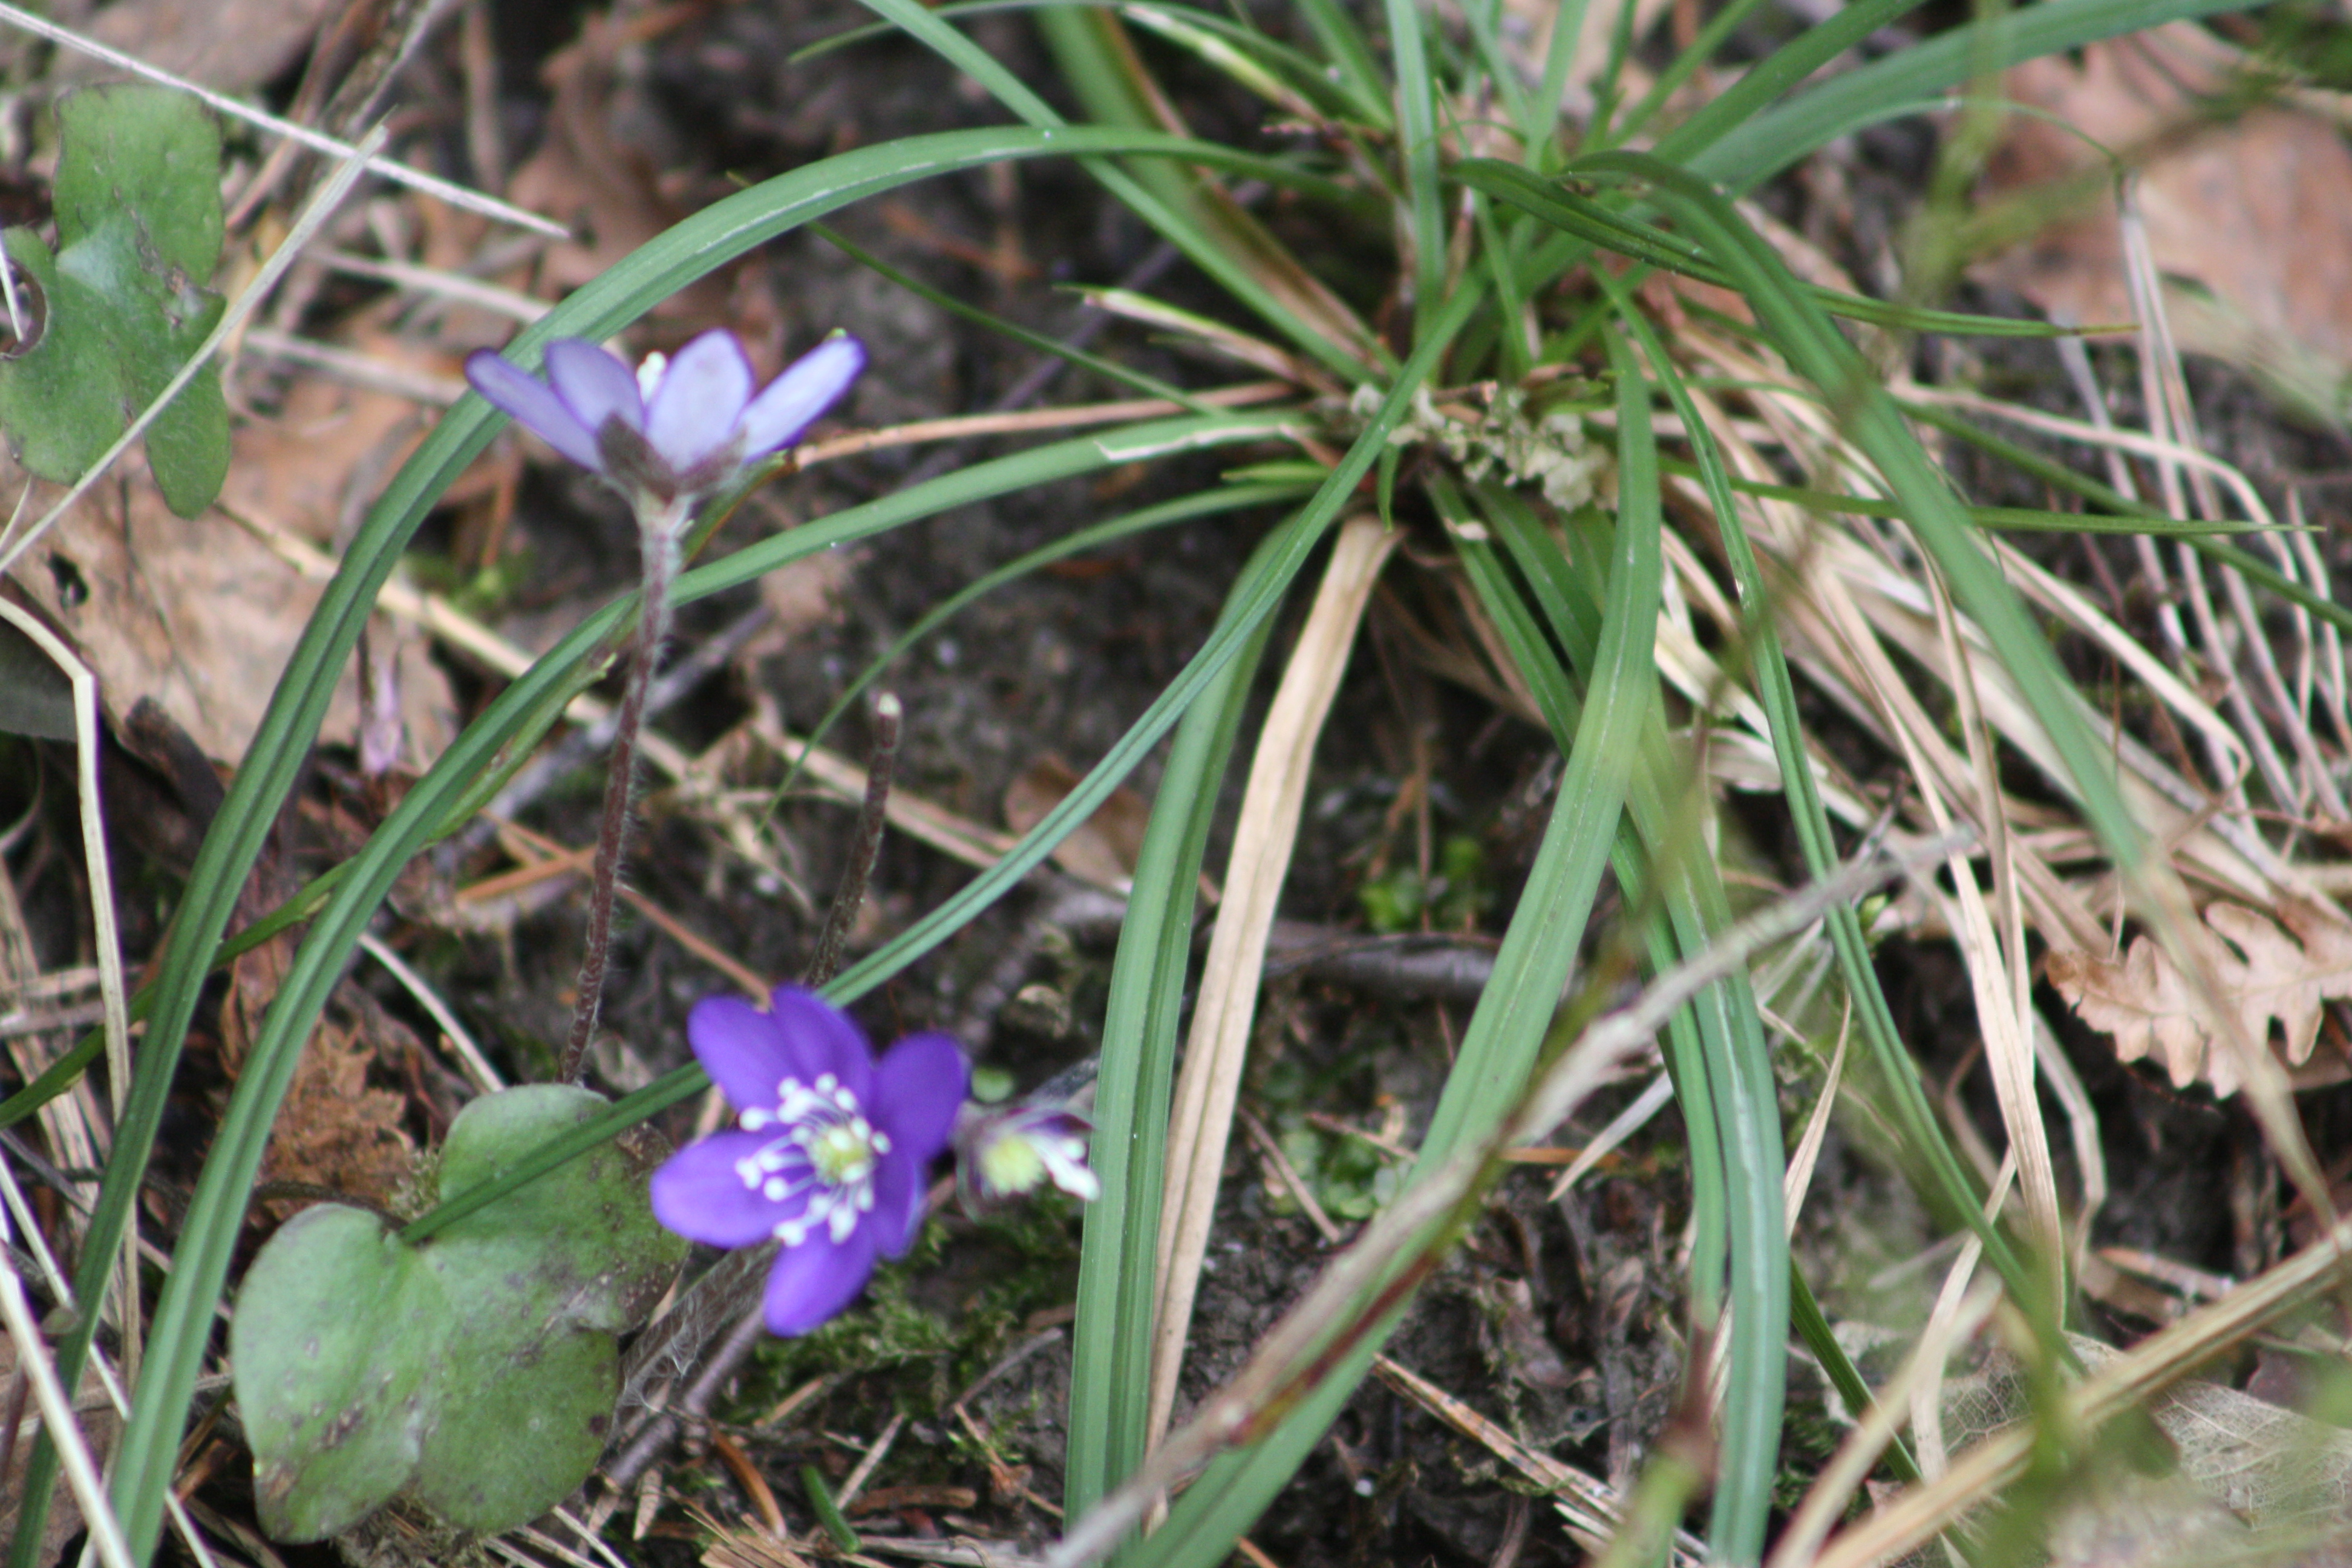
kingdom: Plantae
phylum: Tracheophyta
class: Magnoliopsida
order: Ranunculales
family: Ranunculaceae
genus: Hepatica
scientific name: Hepatica nobilis
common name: Liverleaf
